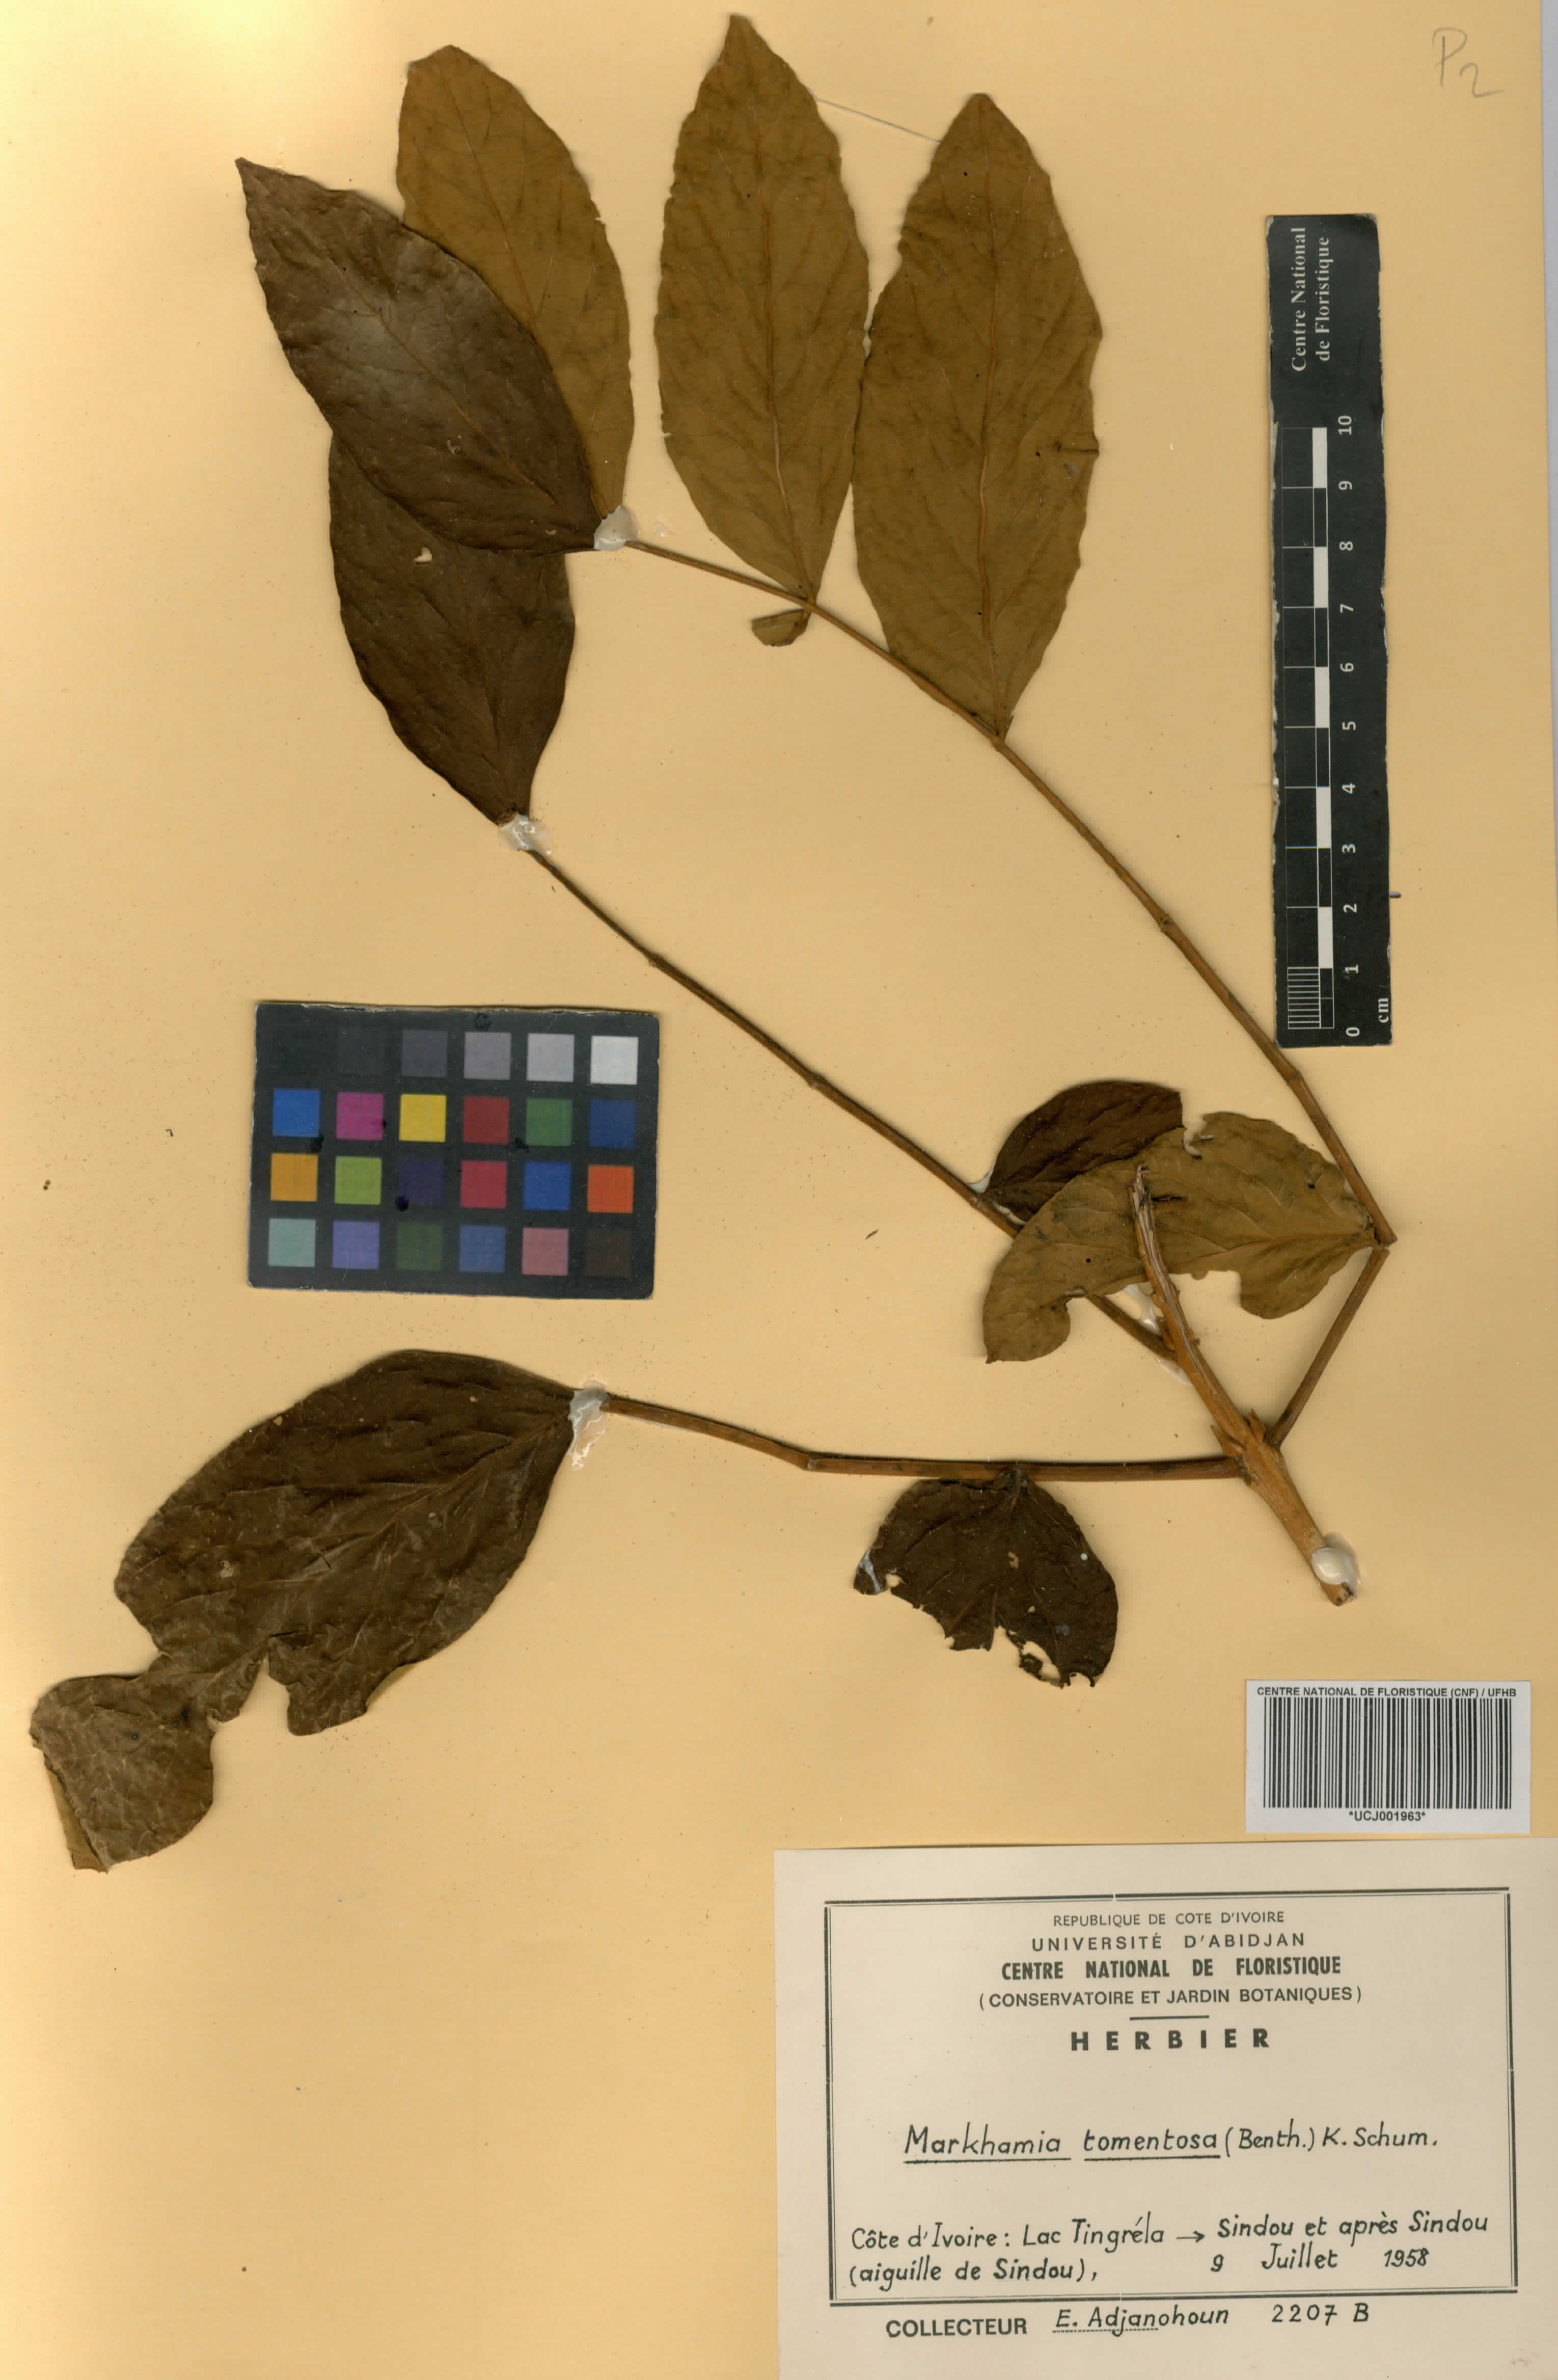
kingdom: Plantae
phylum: Tracheophyta
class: Magnoliopsida
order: Lamiales
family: Bignoniaceae
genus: Markhamia
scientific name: Markhamia tomentosa
